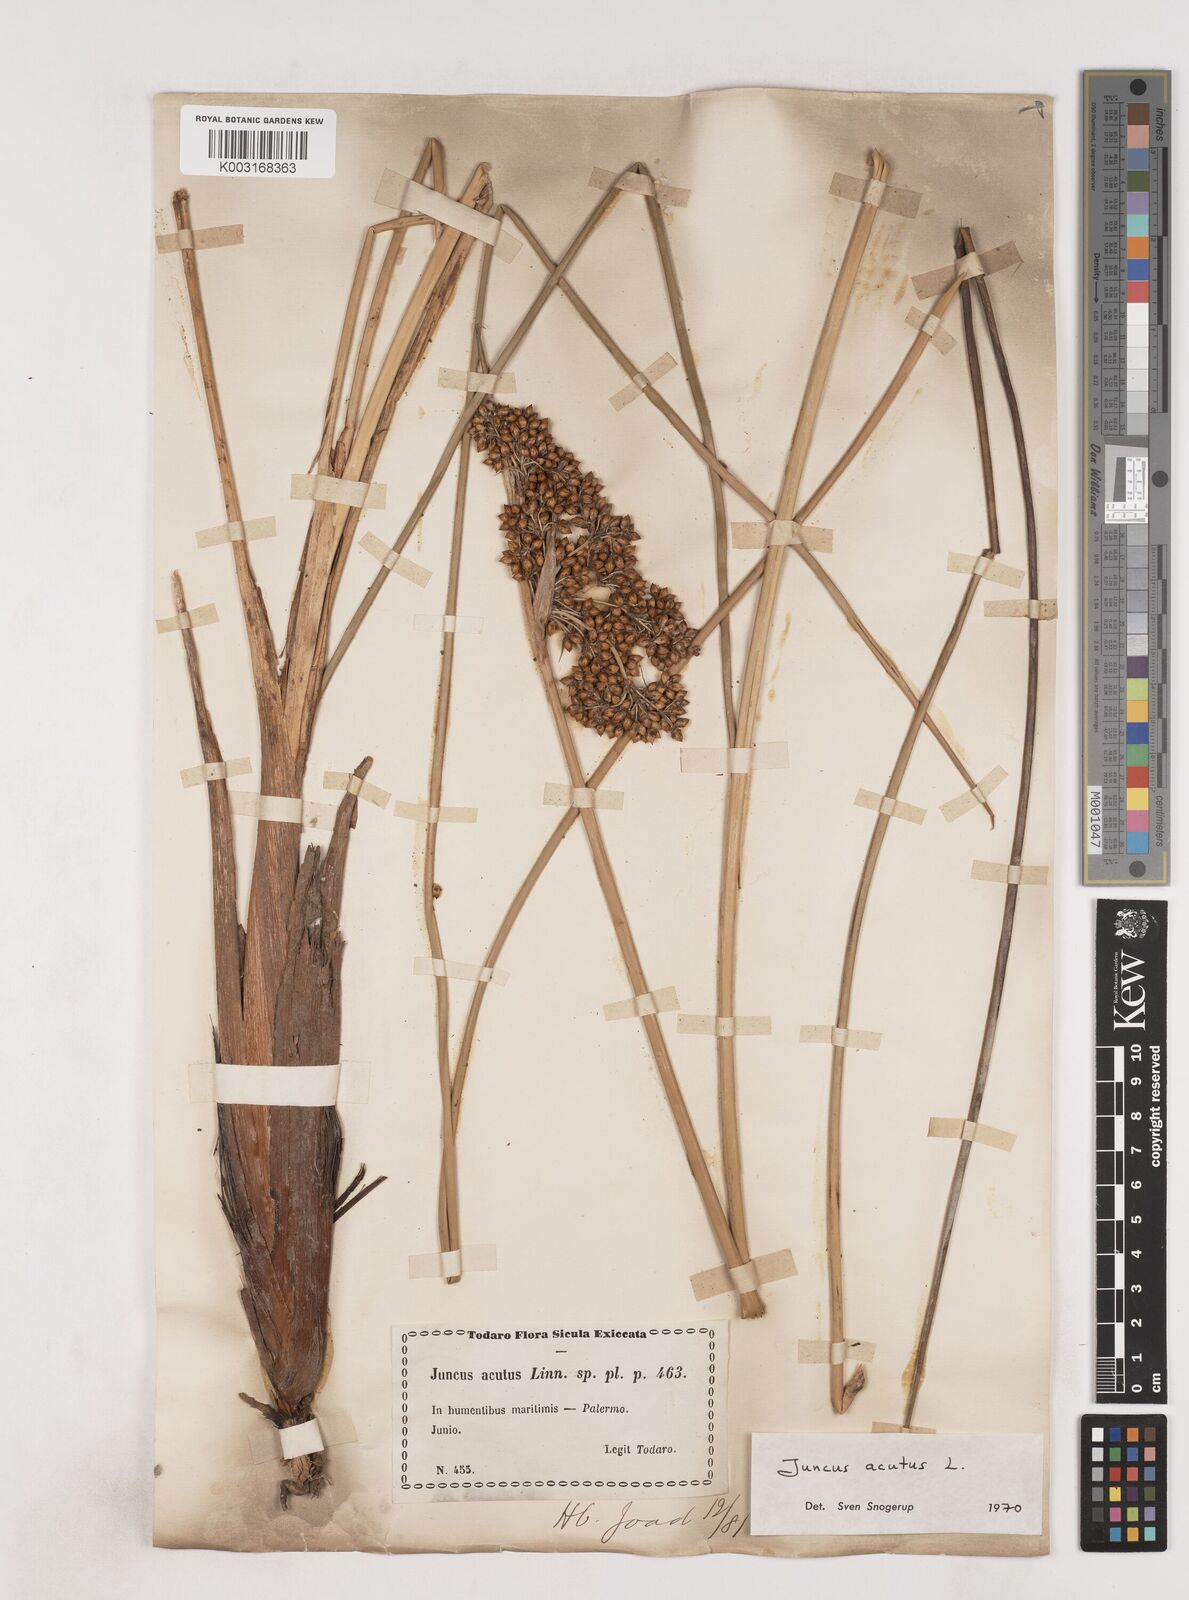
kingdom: Plantae
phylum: Tracheophyta
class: Liliopsida
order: Poales
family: Juncaceae
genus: Juncus
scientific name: Juncus acutus
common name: Sharp rush
